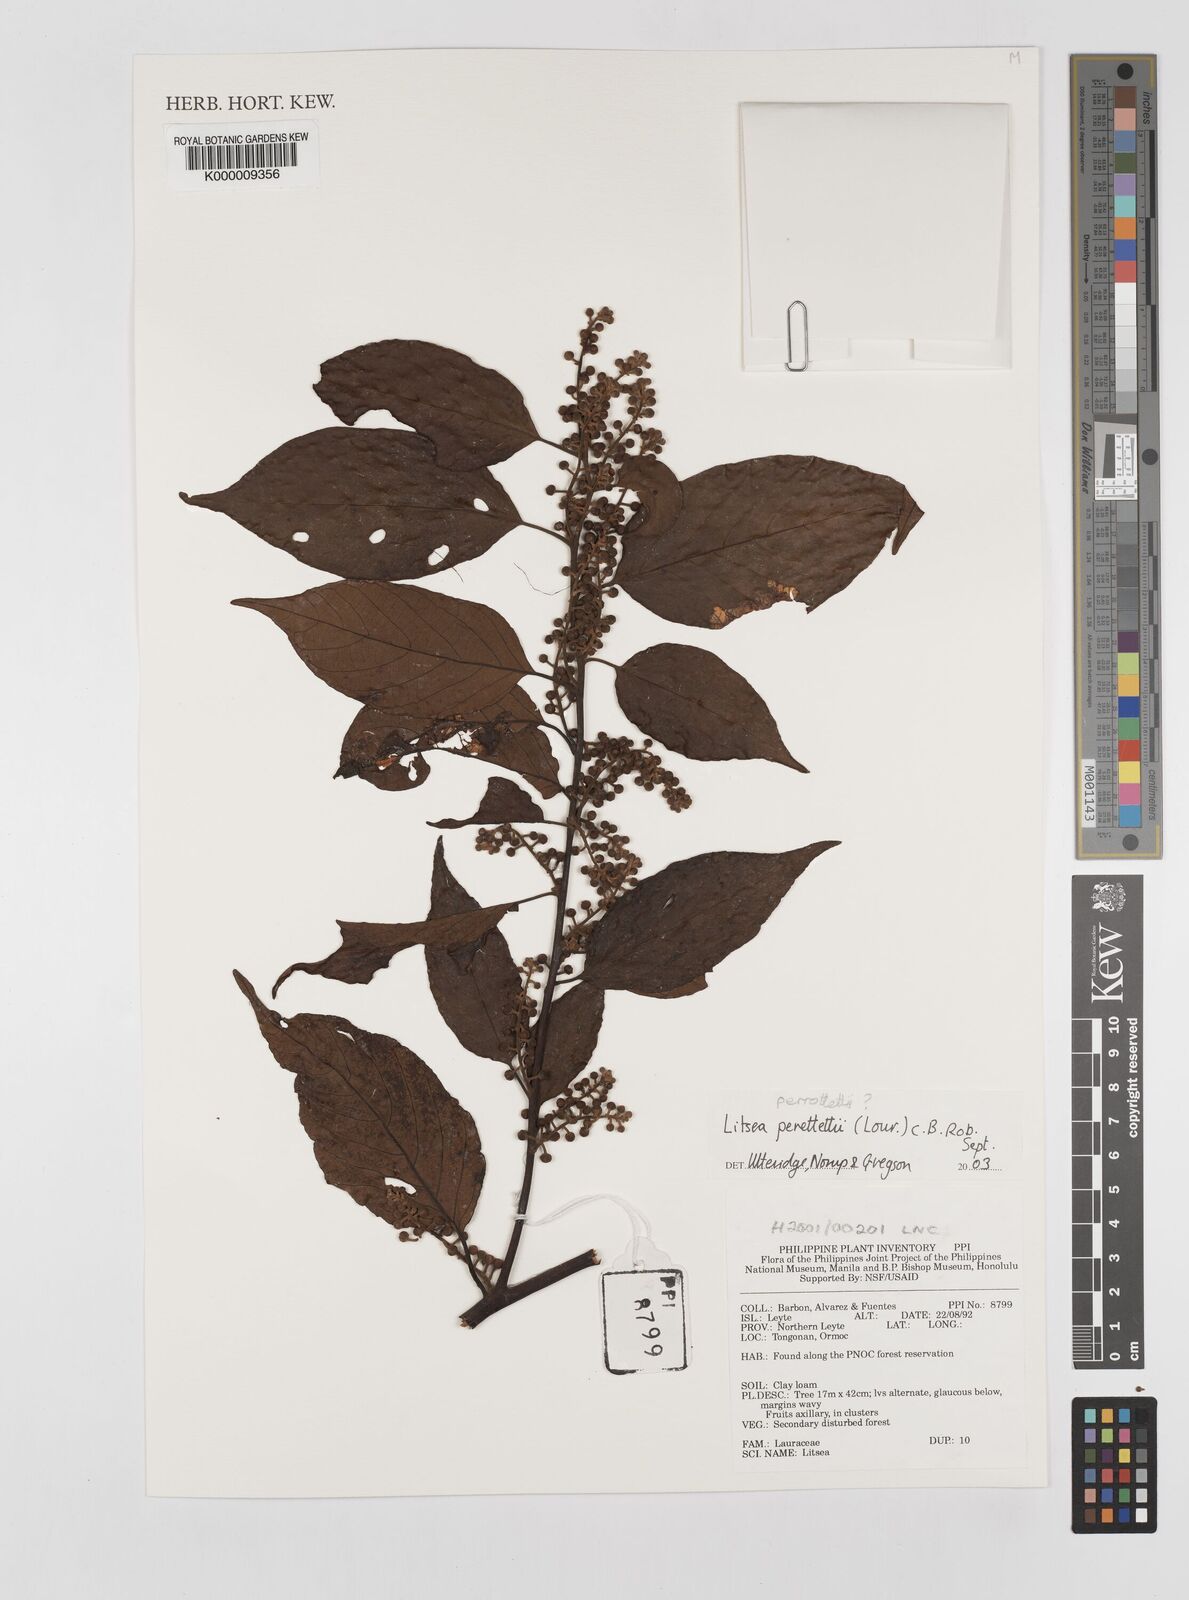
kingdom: Plantae
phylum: Tracheophyta
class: Magnoliopsida
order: Laurales
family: Lauraceae
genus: Litsea
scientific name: Litsea cordata
